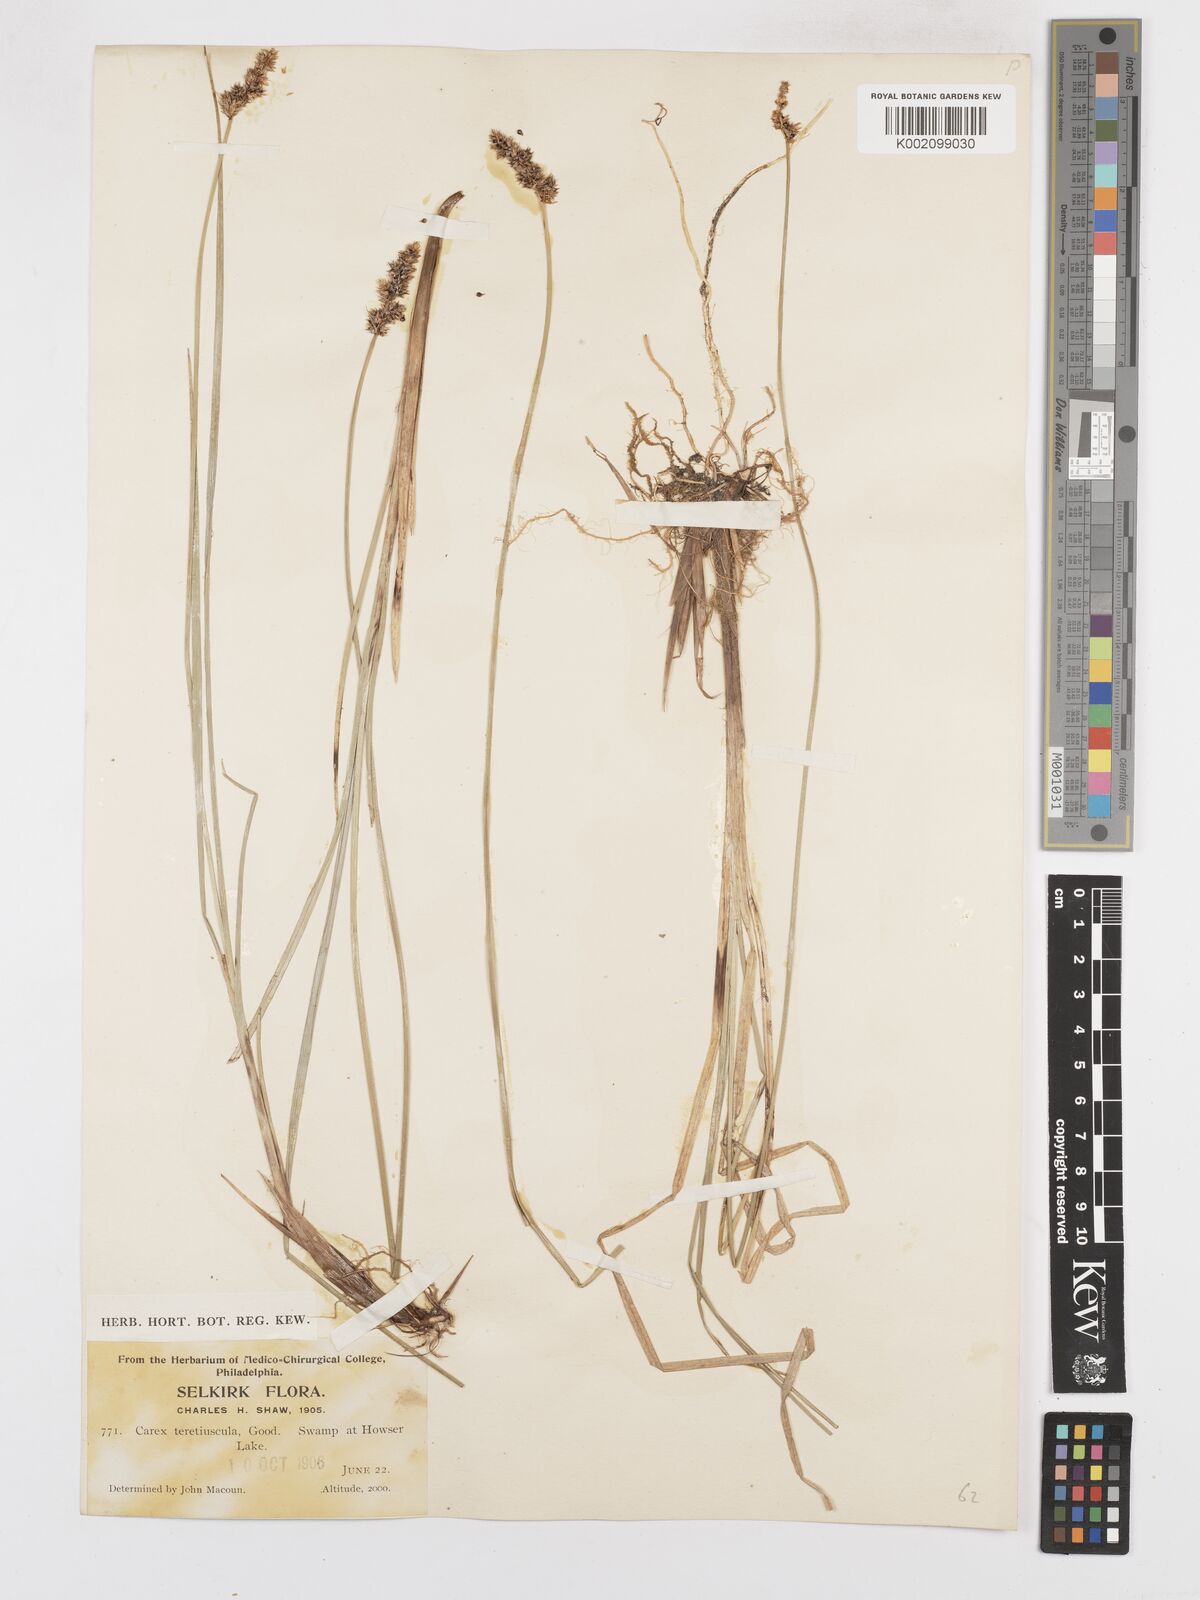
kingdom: Plantae
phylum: Tracheophyta
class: Liliopsida
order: Poales
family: Cyperaceae
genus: Carex
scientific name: Carex diandra
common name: Lesser tussock-sedge
